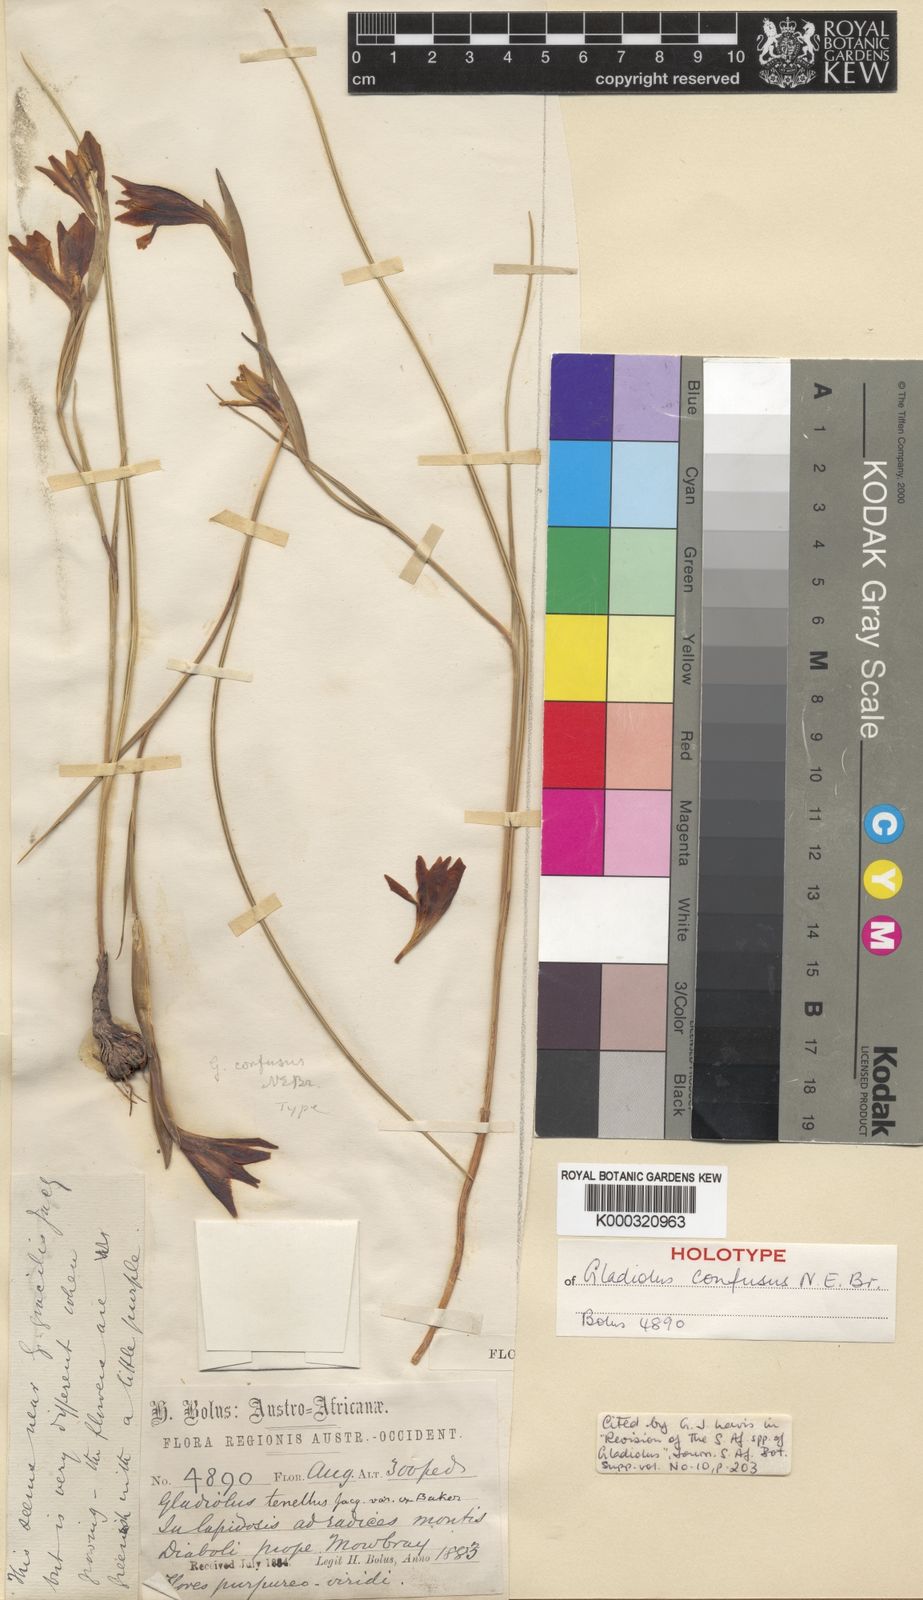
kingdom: Plantae
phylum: Tracheophyta
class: Liliopsida
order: Asparagales
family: Iridaceae
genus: Gladiolus
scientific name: Gladiolus hyalinus
